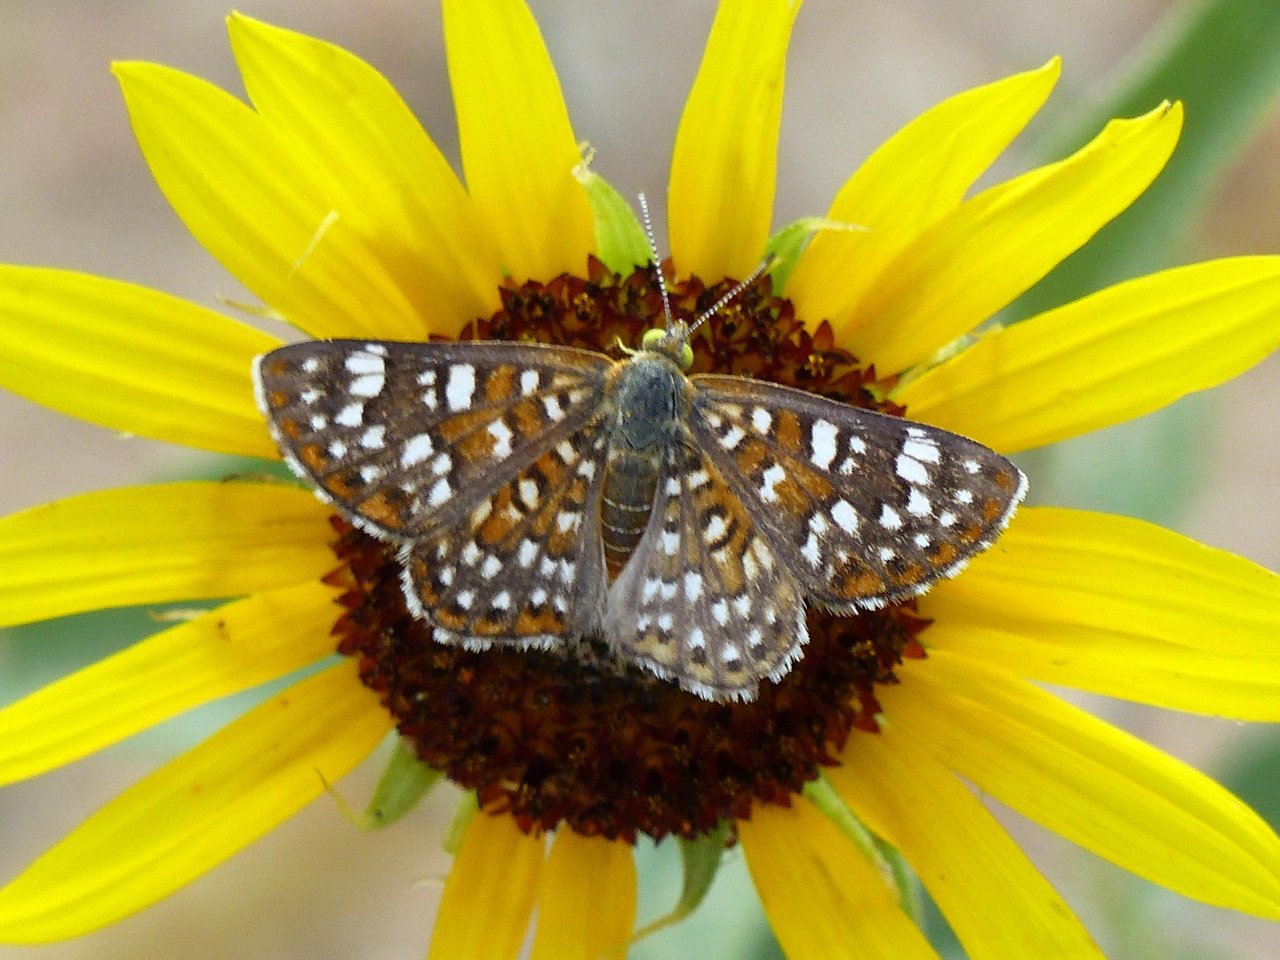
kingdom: Animalia
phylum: Arthropoda
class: Insecta
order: Lepidoptera
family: Riodinidae
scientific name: Riodinidae
